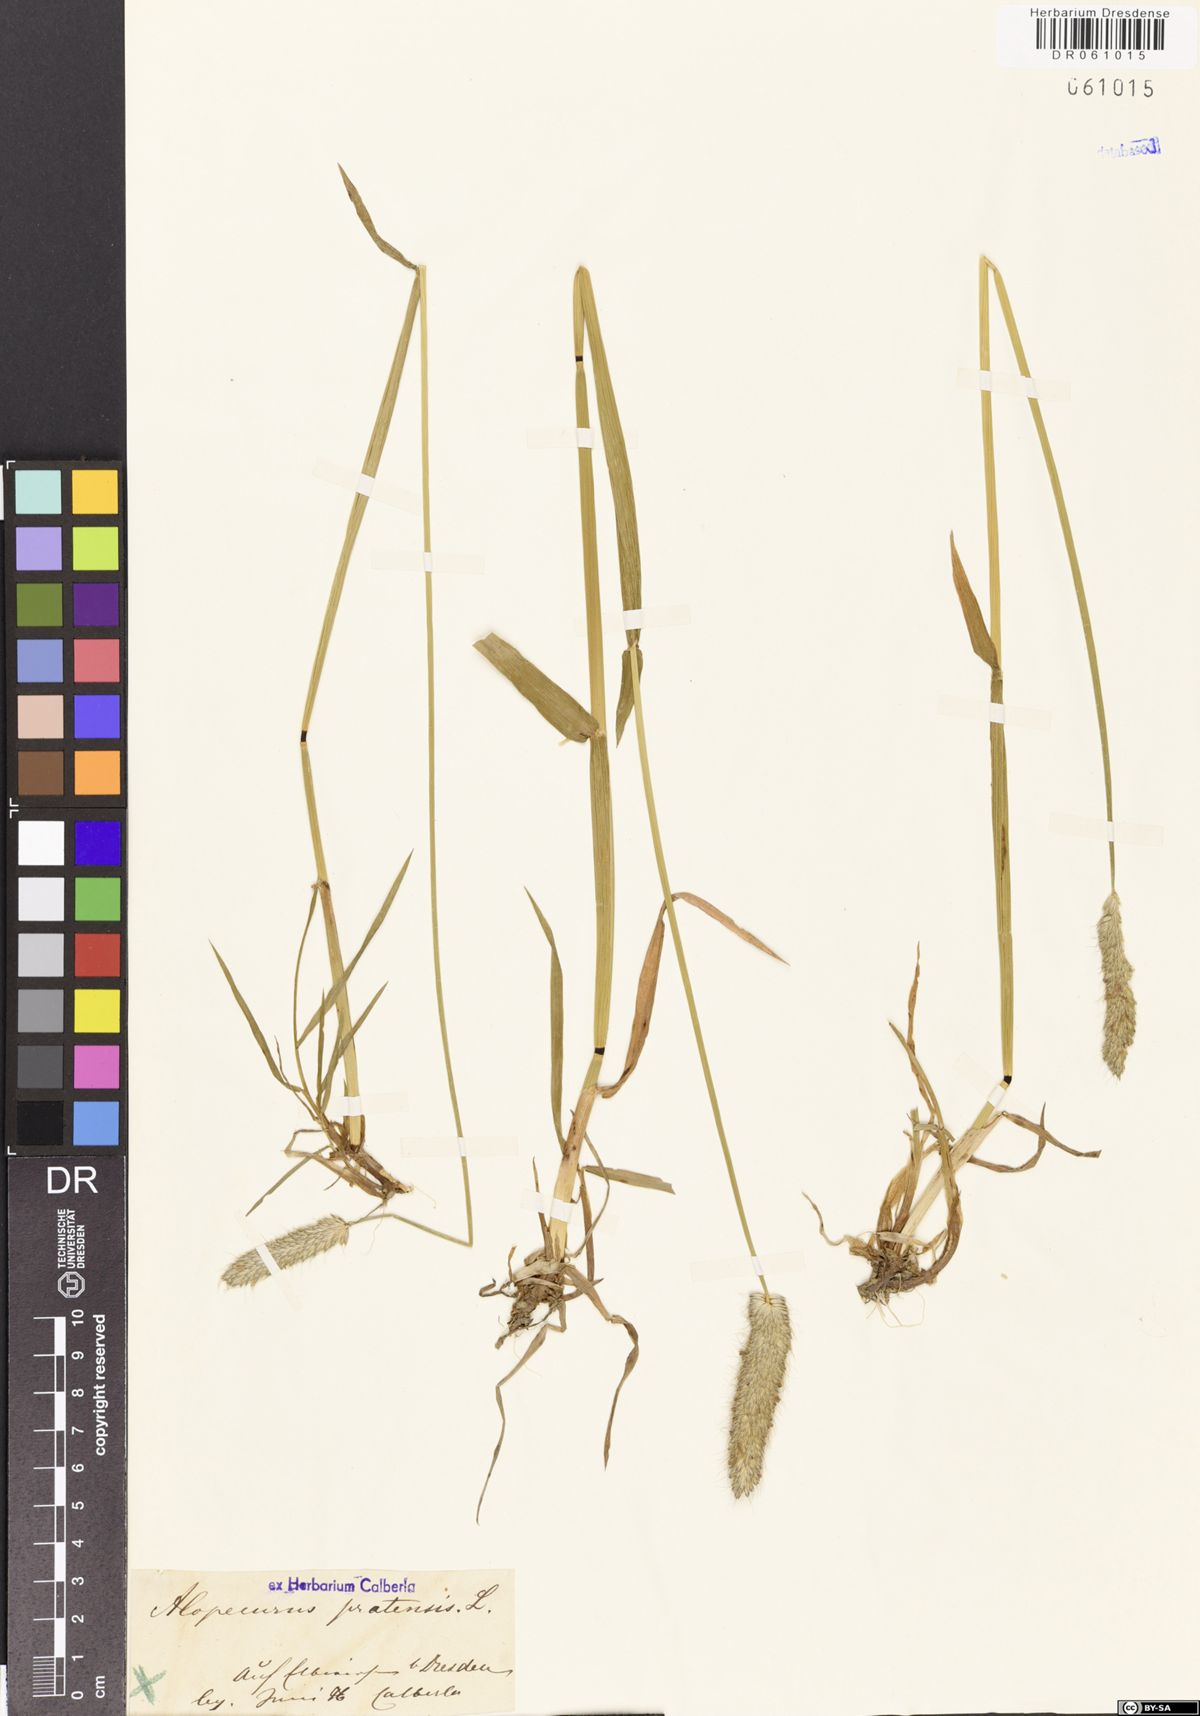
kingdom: Plantae
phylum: Tracheophyta
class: Liliopsida
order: Poales
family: Poaceae
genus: Alopecurus
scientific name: Alopecurus pratensis
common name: Meadow foxtail
